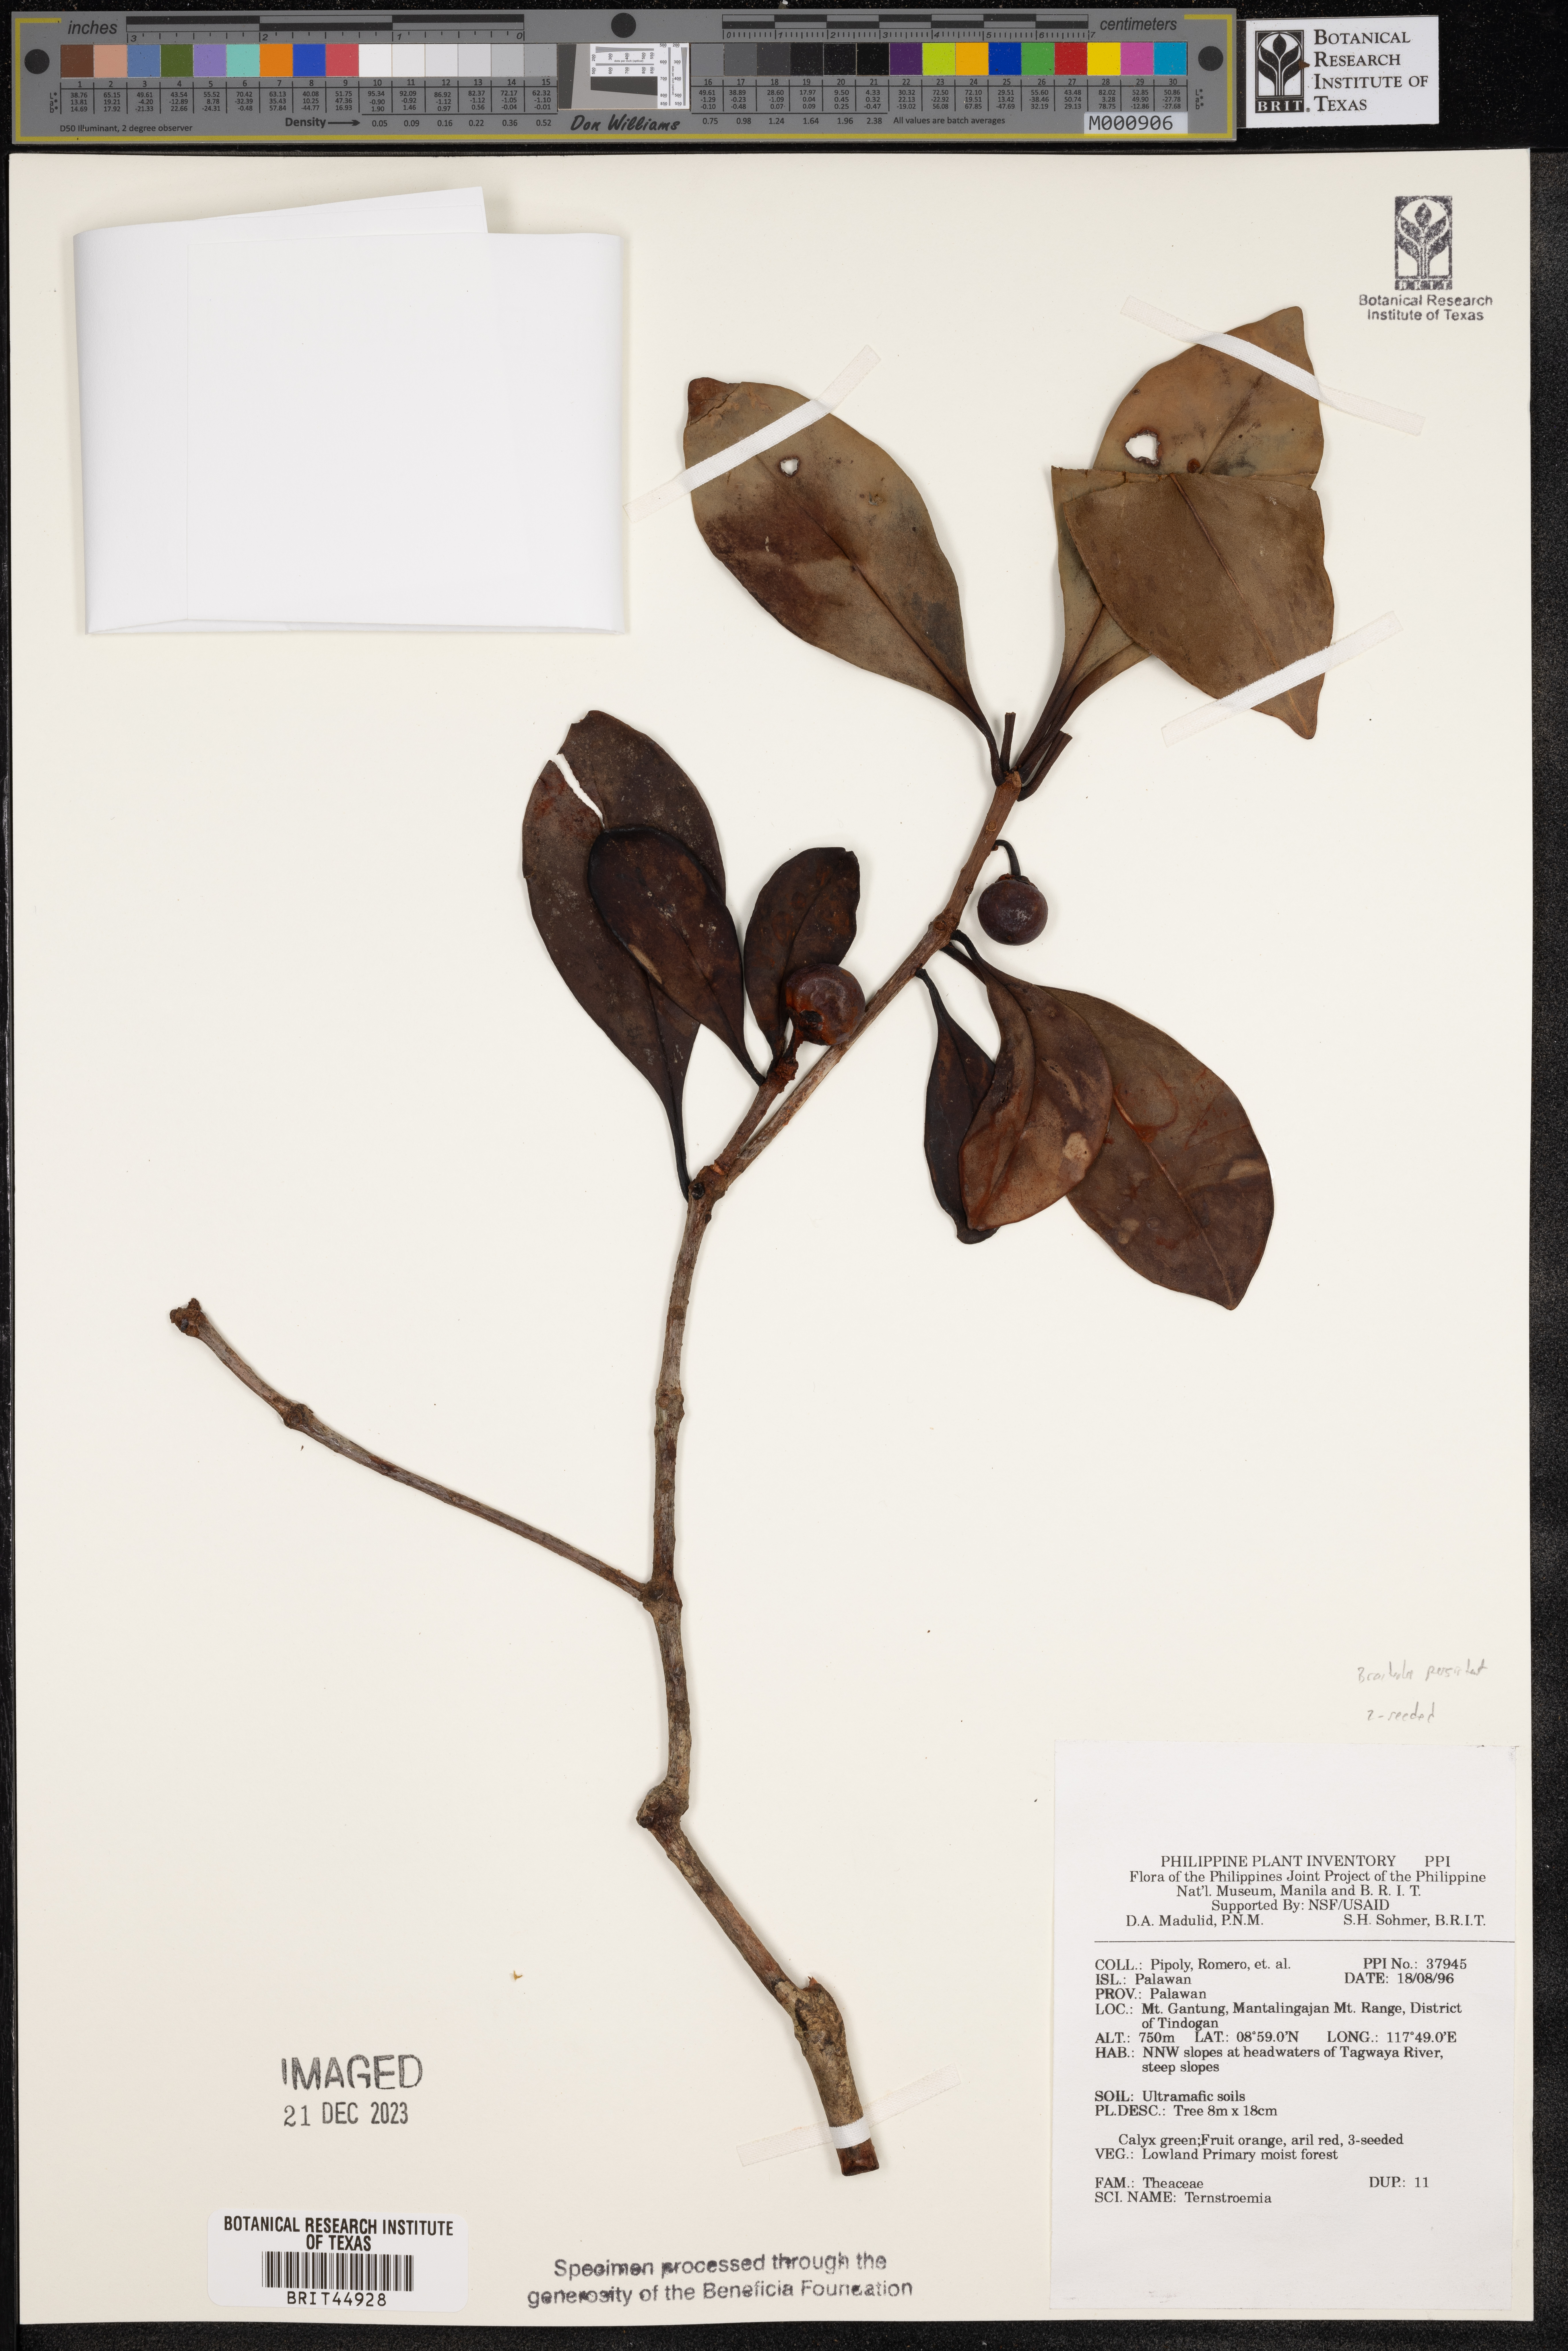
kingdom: Plantae
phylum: Tracheophyta
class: Magnoliopsida
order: Ericales
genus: Ternstroemia
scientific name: Ternstroemia
